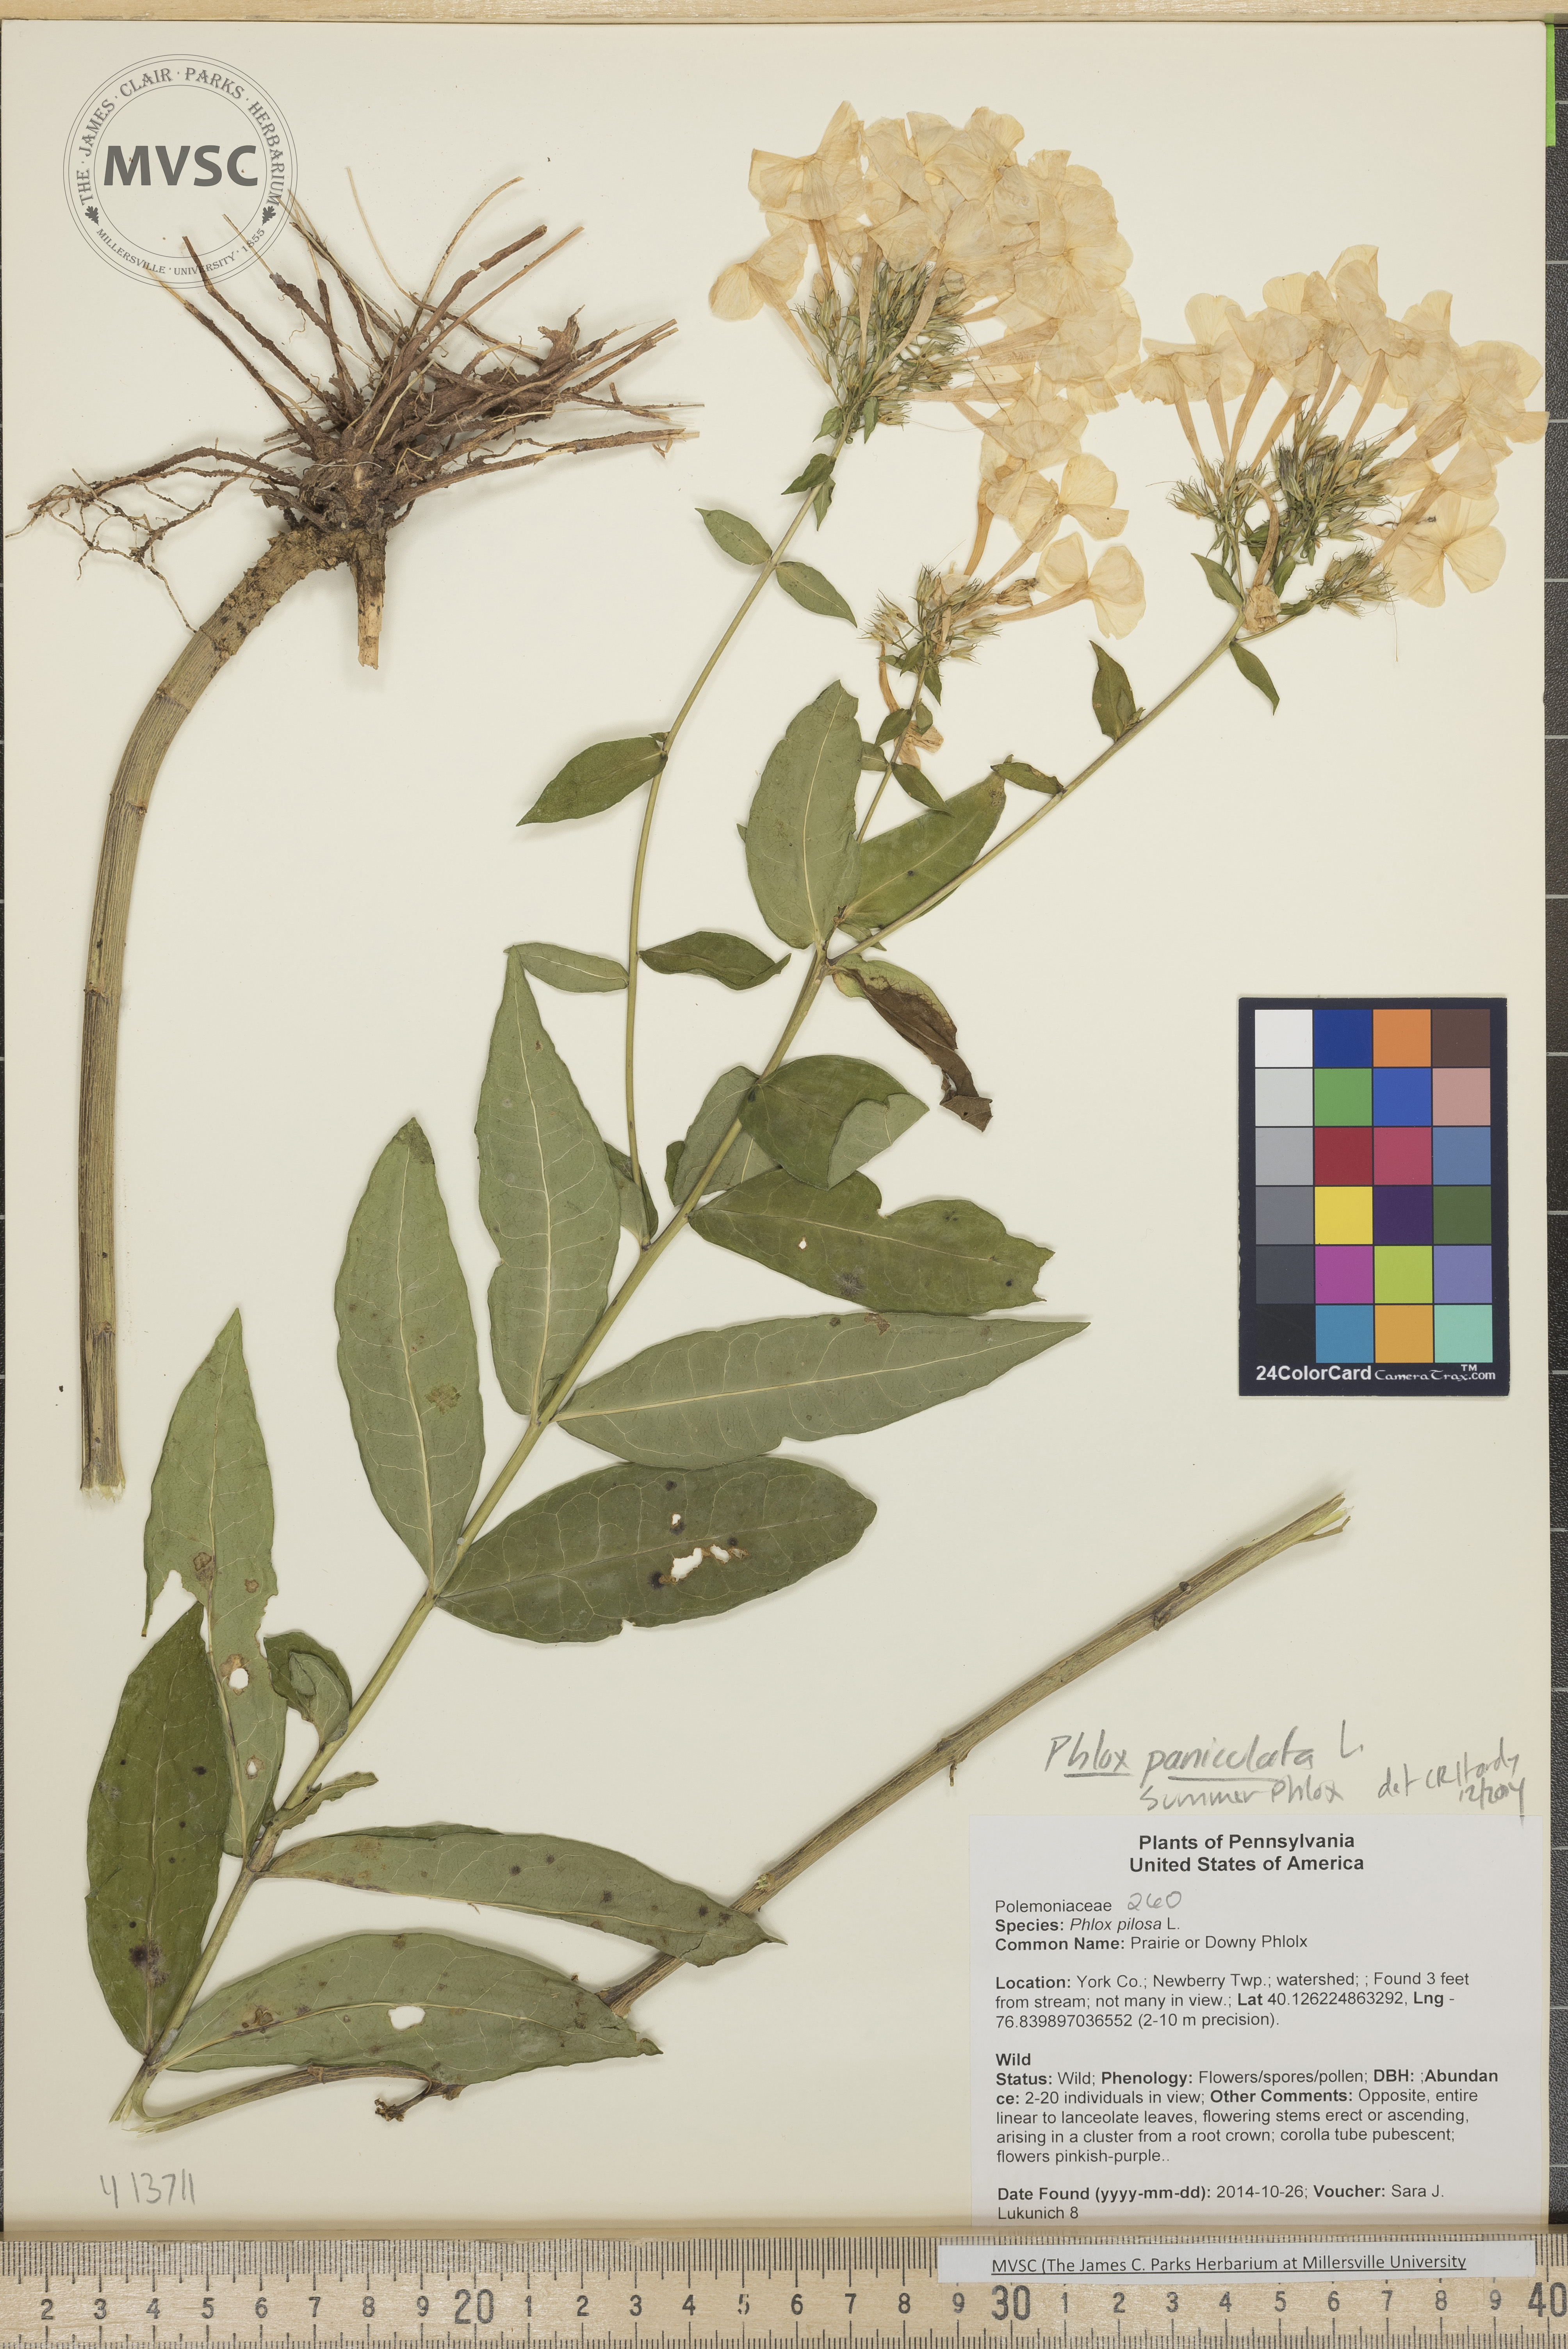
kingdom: Plantae
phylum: Tracheophyta
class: Magnoliopsida
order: Ericales
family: Polemoniaceae
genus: Phlox
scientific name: Phlox paniculata
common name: Summer phlox
